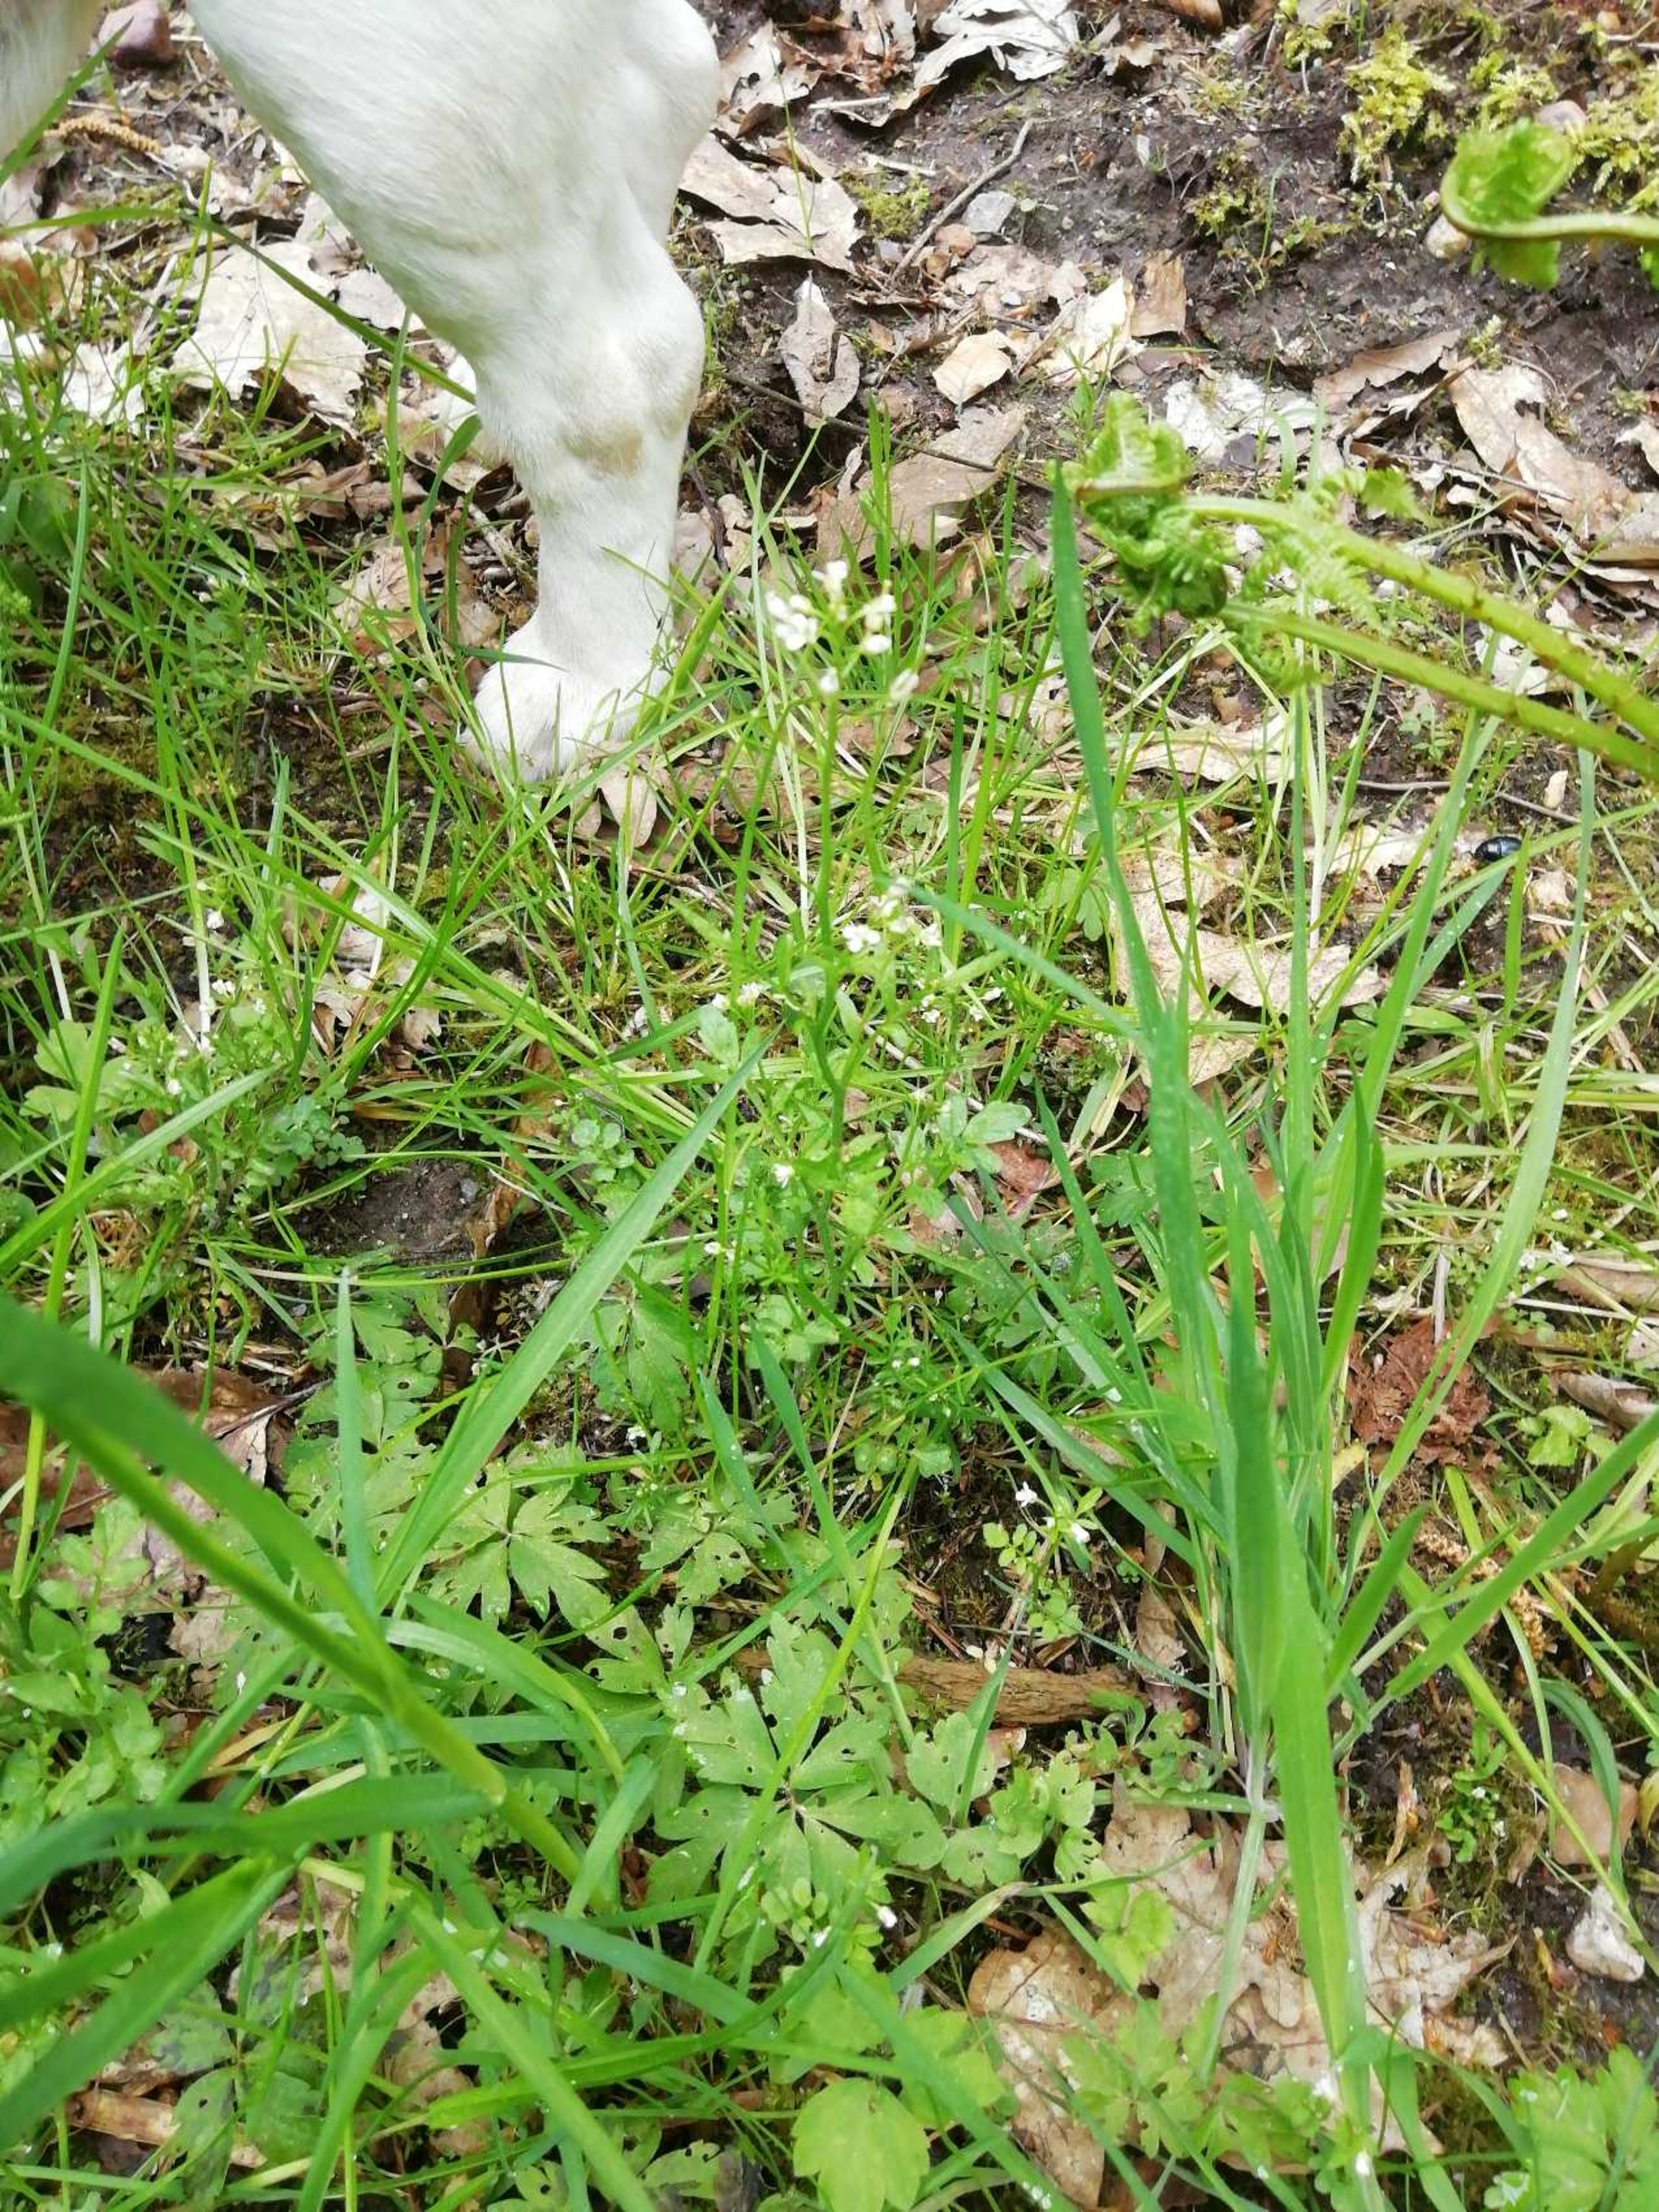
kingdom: Plantae
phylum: Tracheophyta
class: Magnoliopsida
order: Brassicales
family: Brassicaceae
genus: Cardamine
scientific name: Cardamine flexuosa
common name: Skov-springklap
